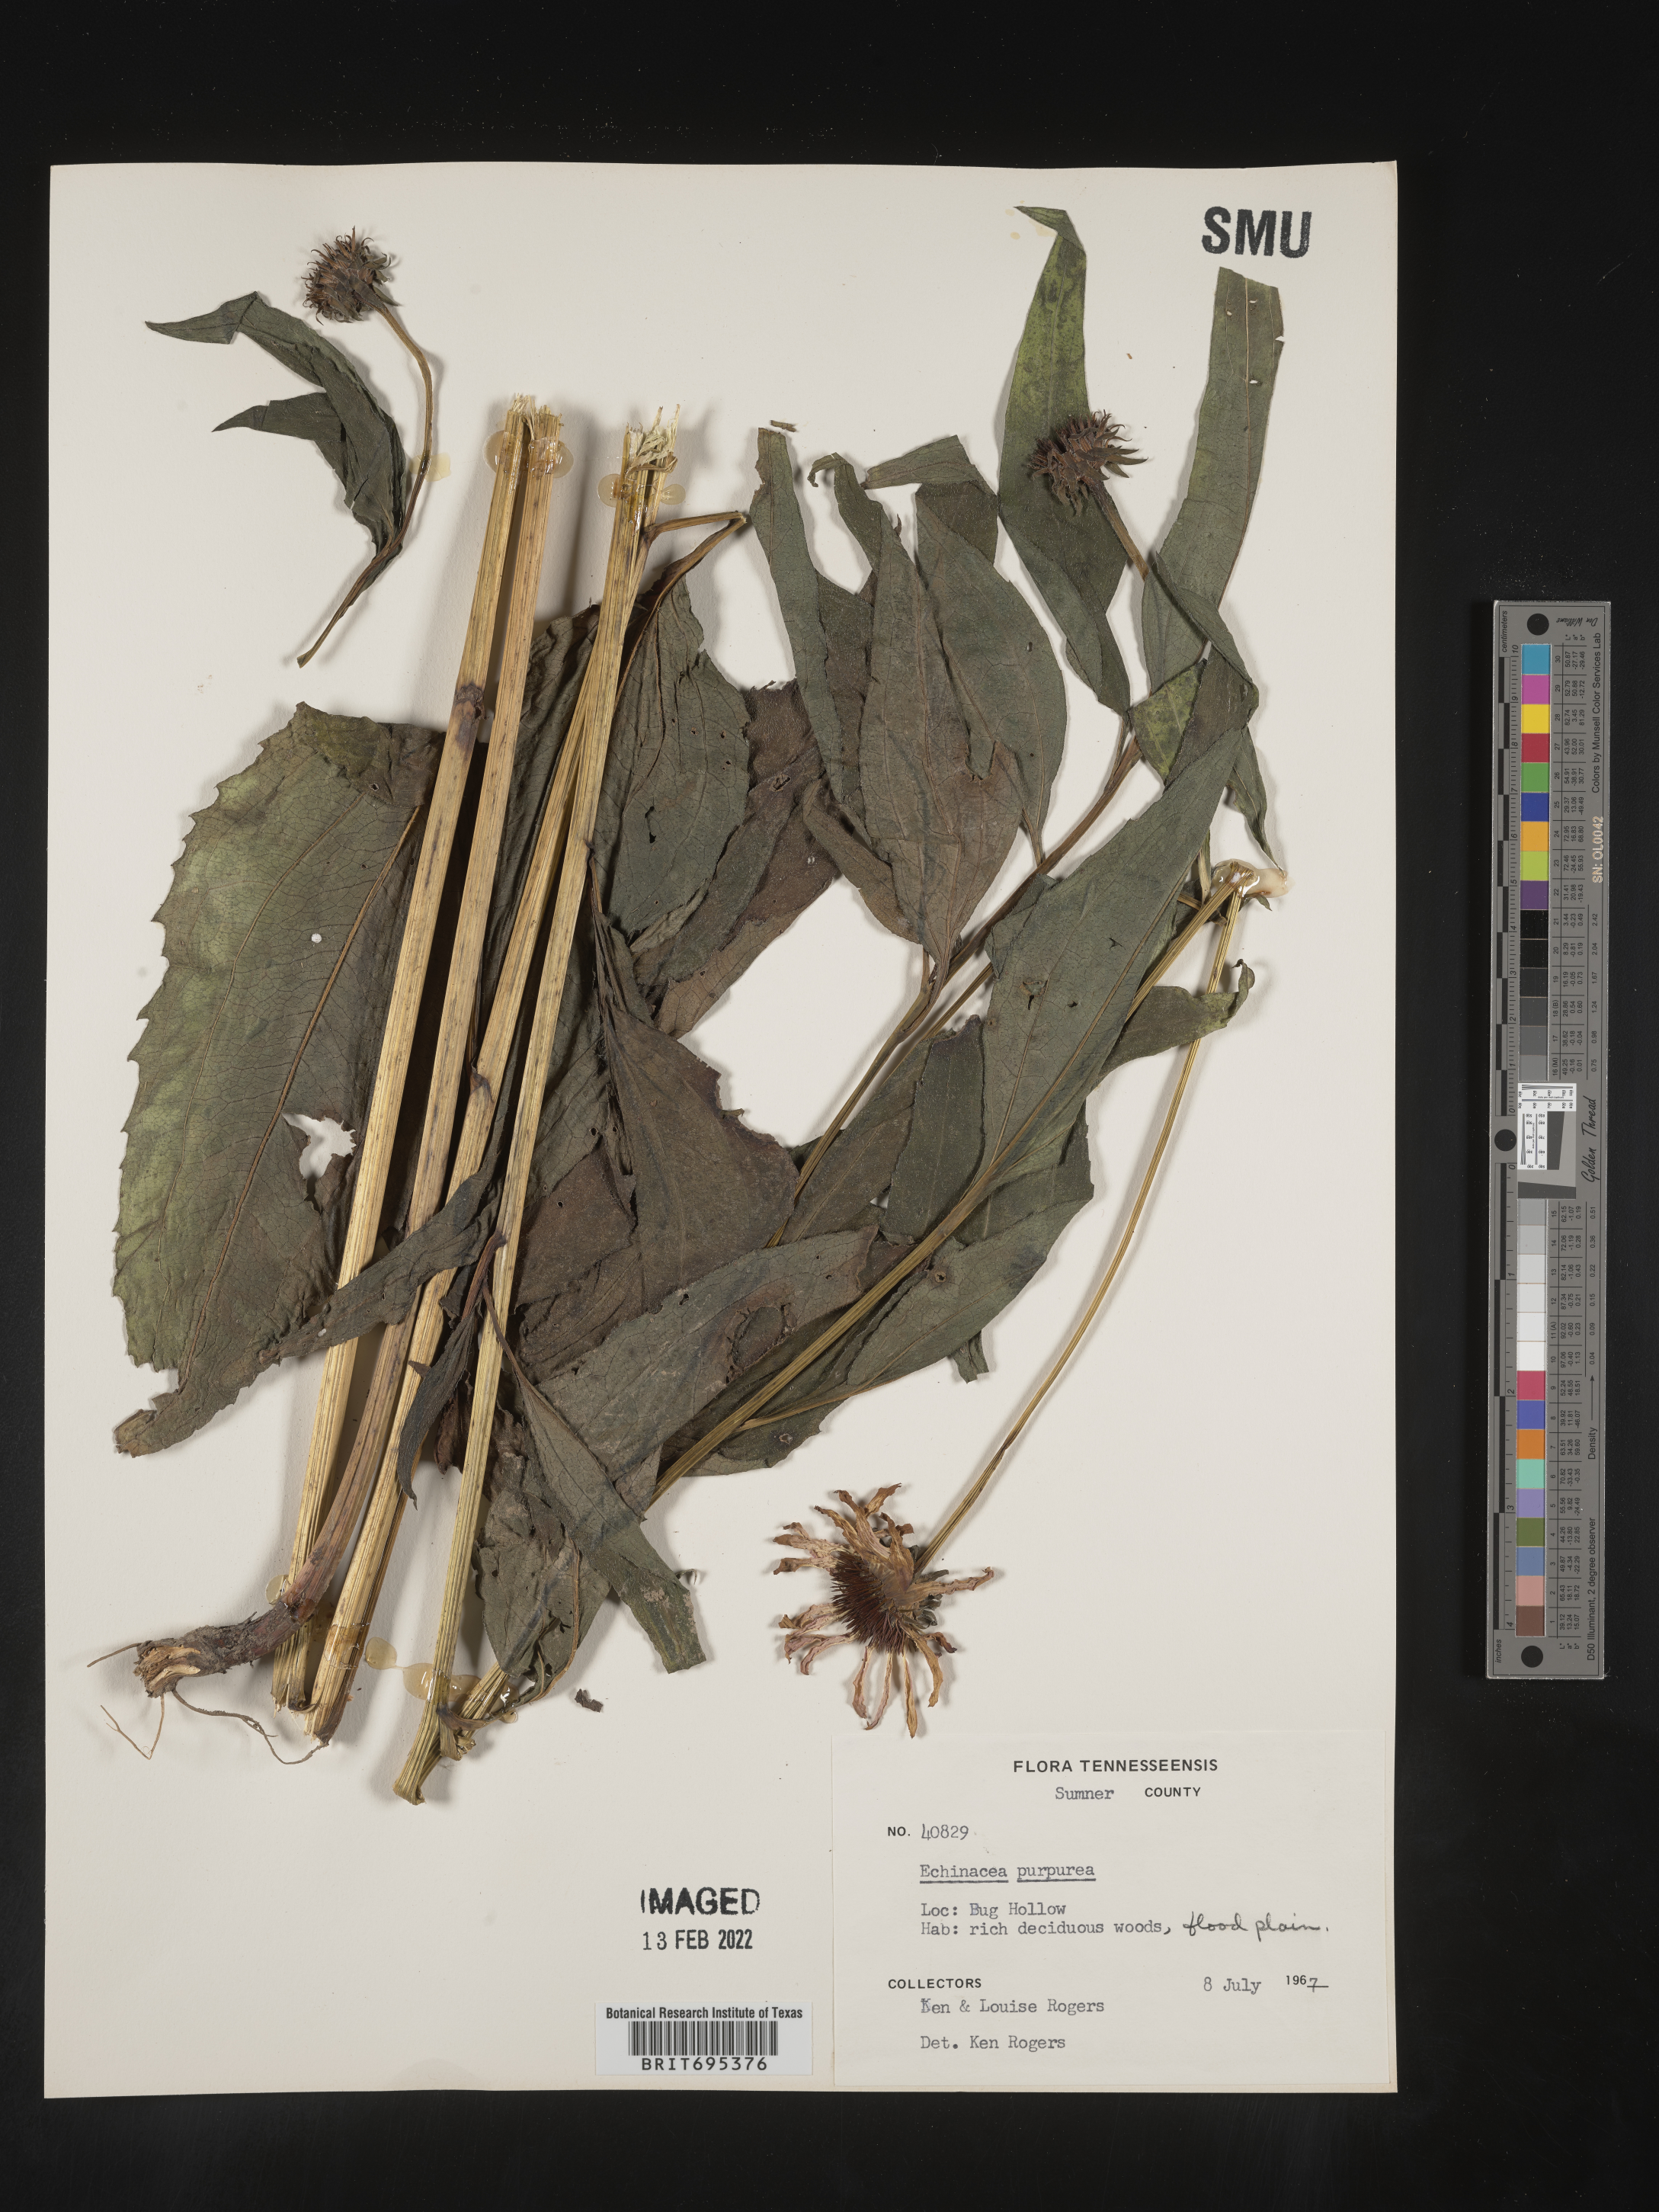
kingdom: Plantae
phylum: Tracheophyta
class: Magnoliopsida
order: Asterales
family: Asteraceae
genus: Echinacea
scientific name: Echinacea purpurea
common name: Broad-leaved purple coneflower
